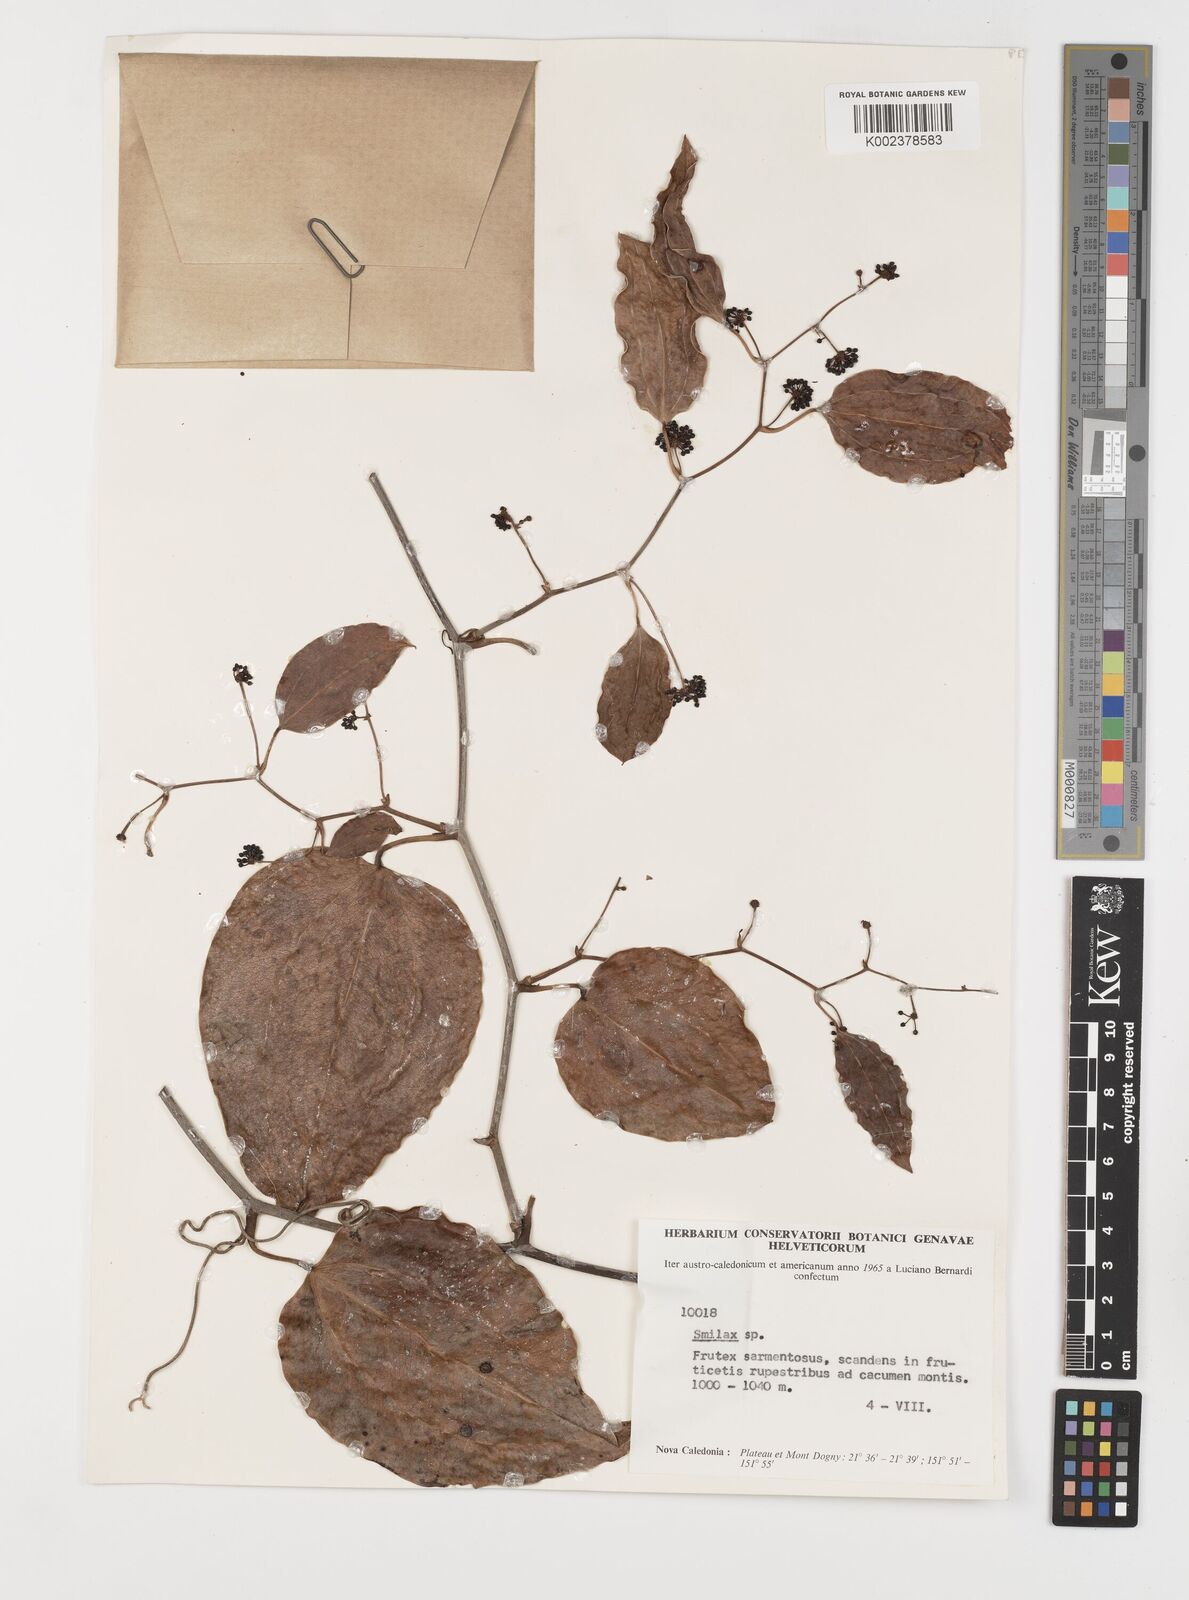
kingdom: Plantae
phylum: Tracheophyta
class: Liliopsida
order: Liliales
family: Smilacaceae
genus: Smilax
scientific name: Smilax
